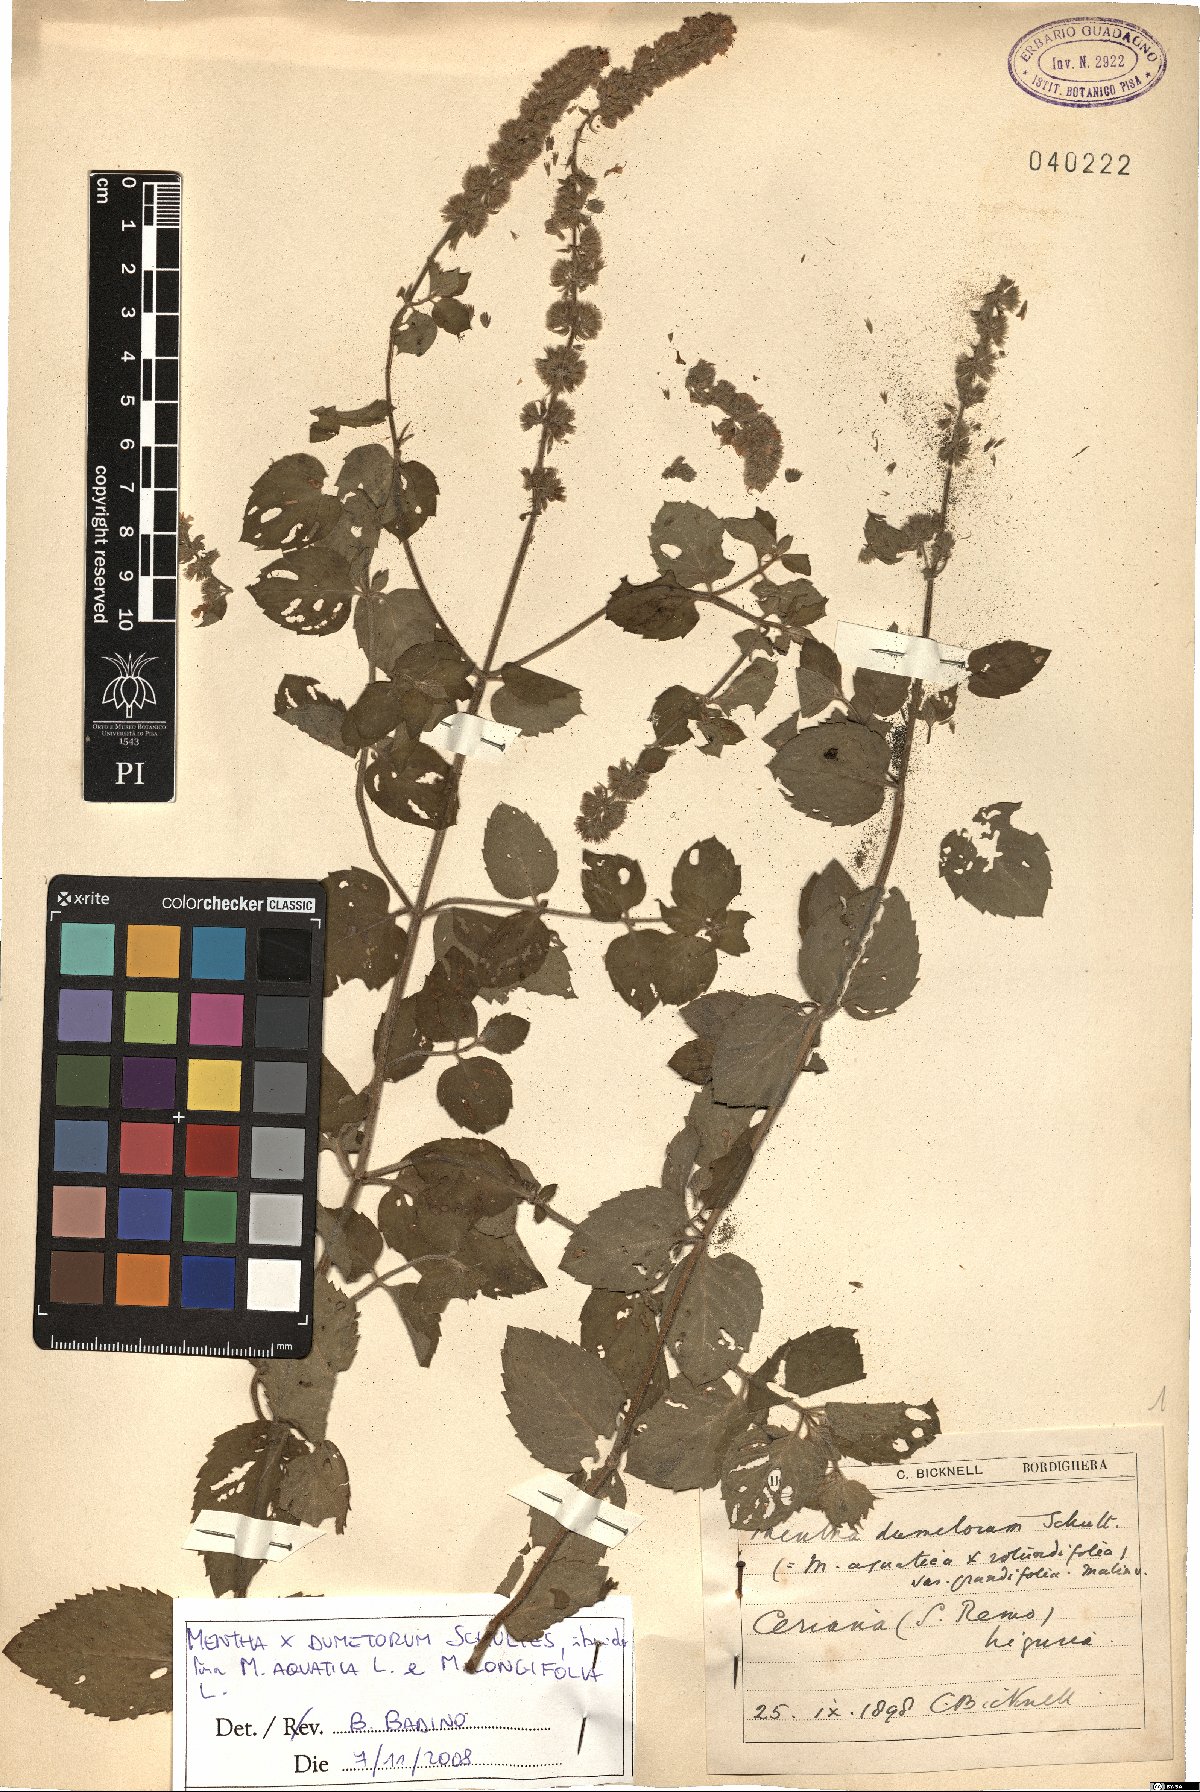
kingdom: Plantae
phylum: Tracheophyta
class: Magnoliopsida
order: Lamiales
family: Lamiaceae
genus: Mentha
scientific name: Mentha dumetorum
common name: Bush-loving mint
